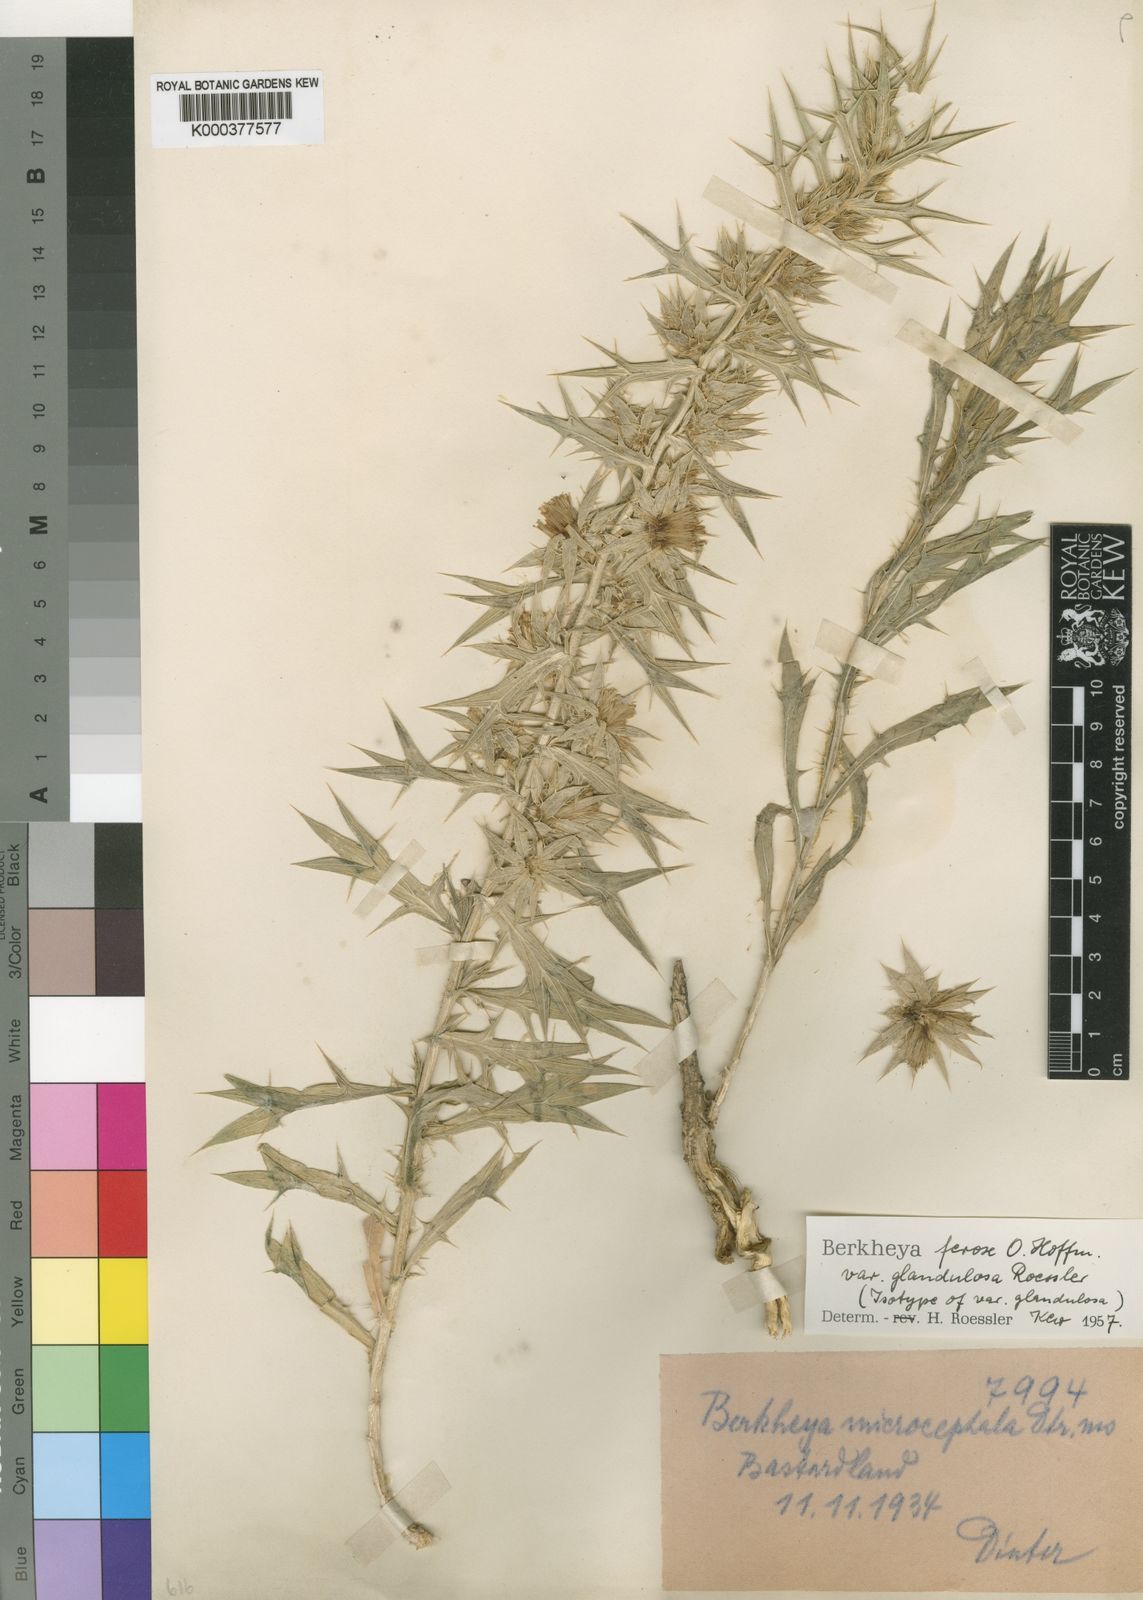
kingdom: Plantae
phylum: Tracheophyta
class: Magnoliopsida
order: Asterales
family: Asteraceae
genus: Berkheya
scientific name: Berkheya ferox
